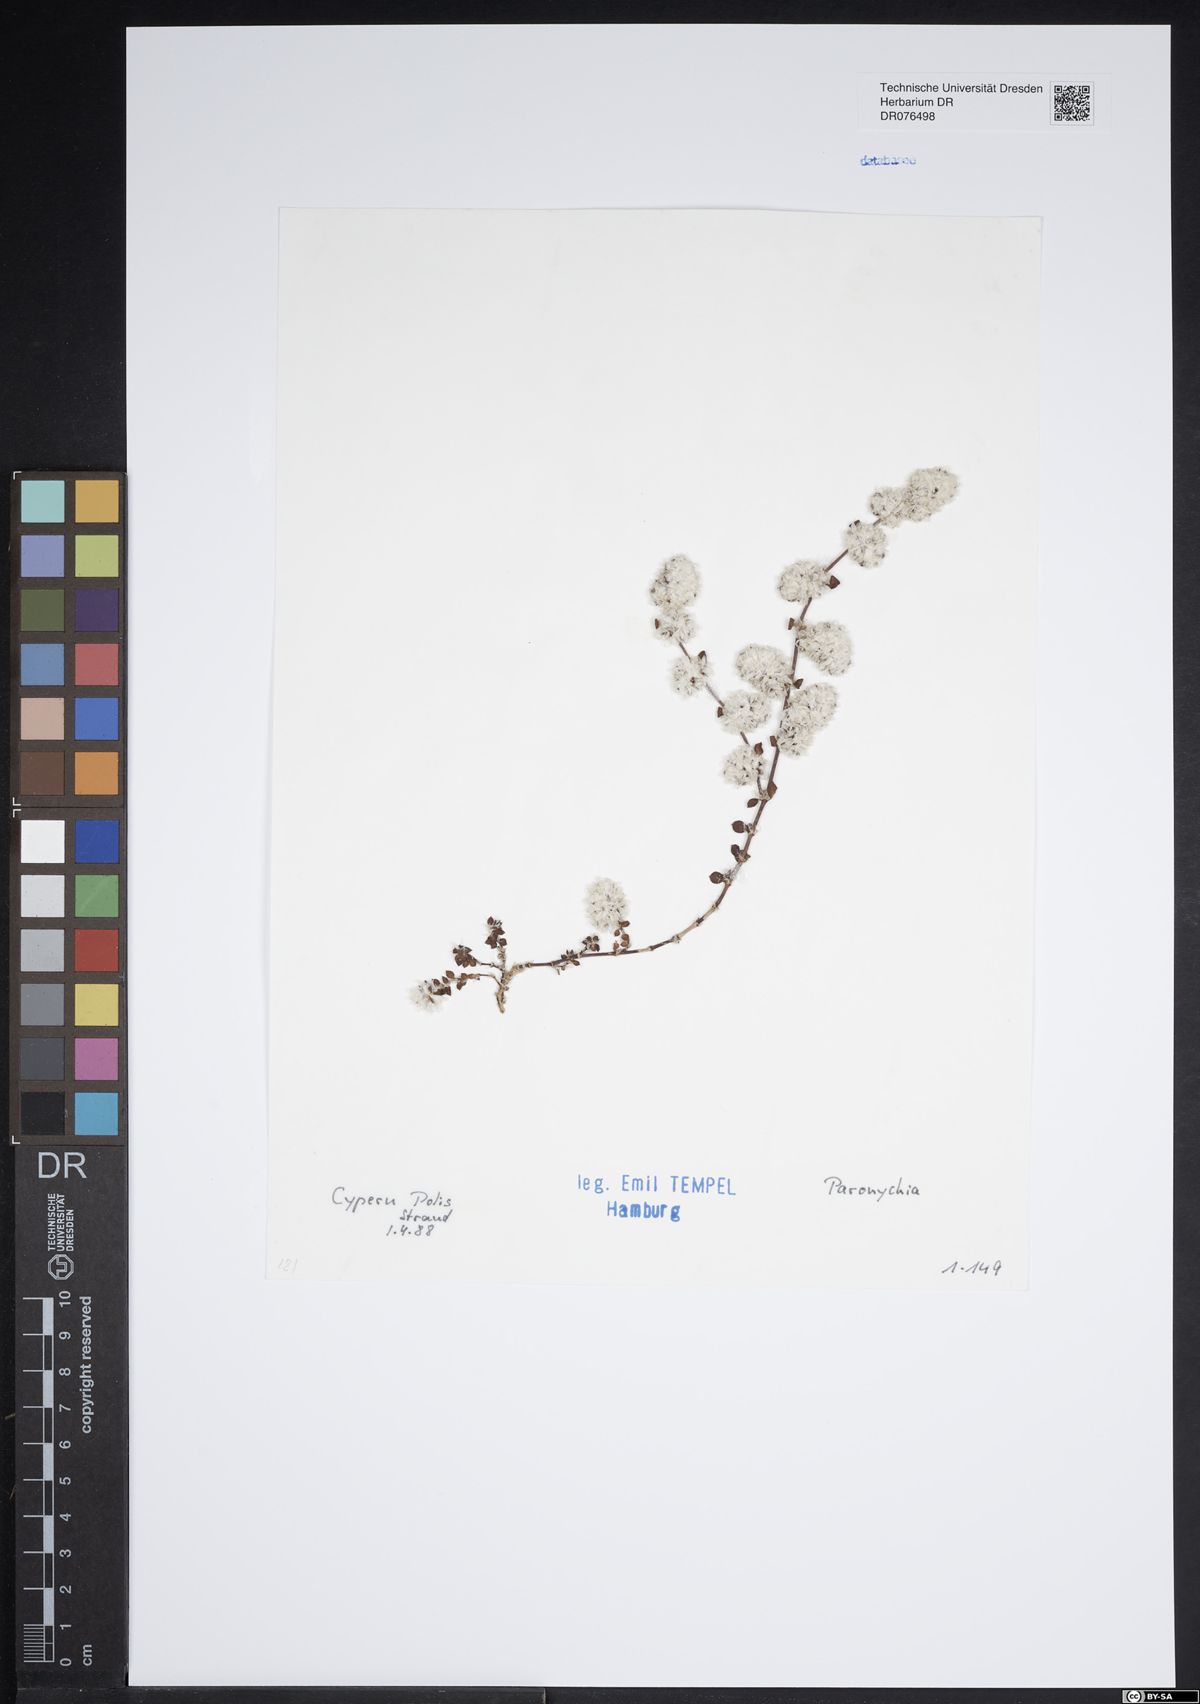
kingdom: Plantae
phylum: Tracheophyta
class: Magnoliopsida
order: Caryophyllales
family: Caryophyllaceae
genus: Paronychia
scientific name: Paronychia
